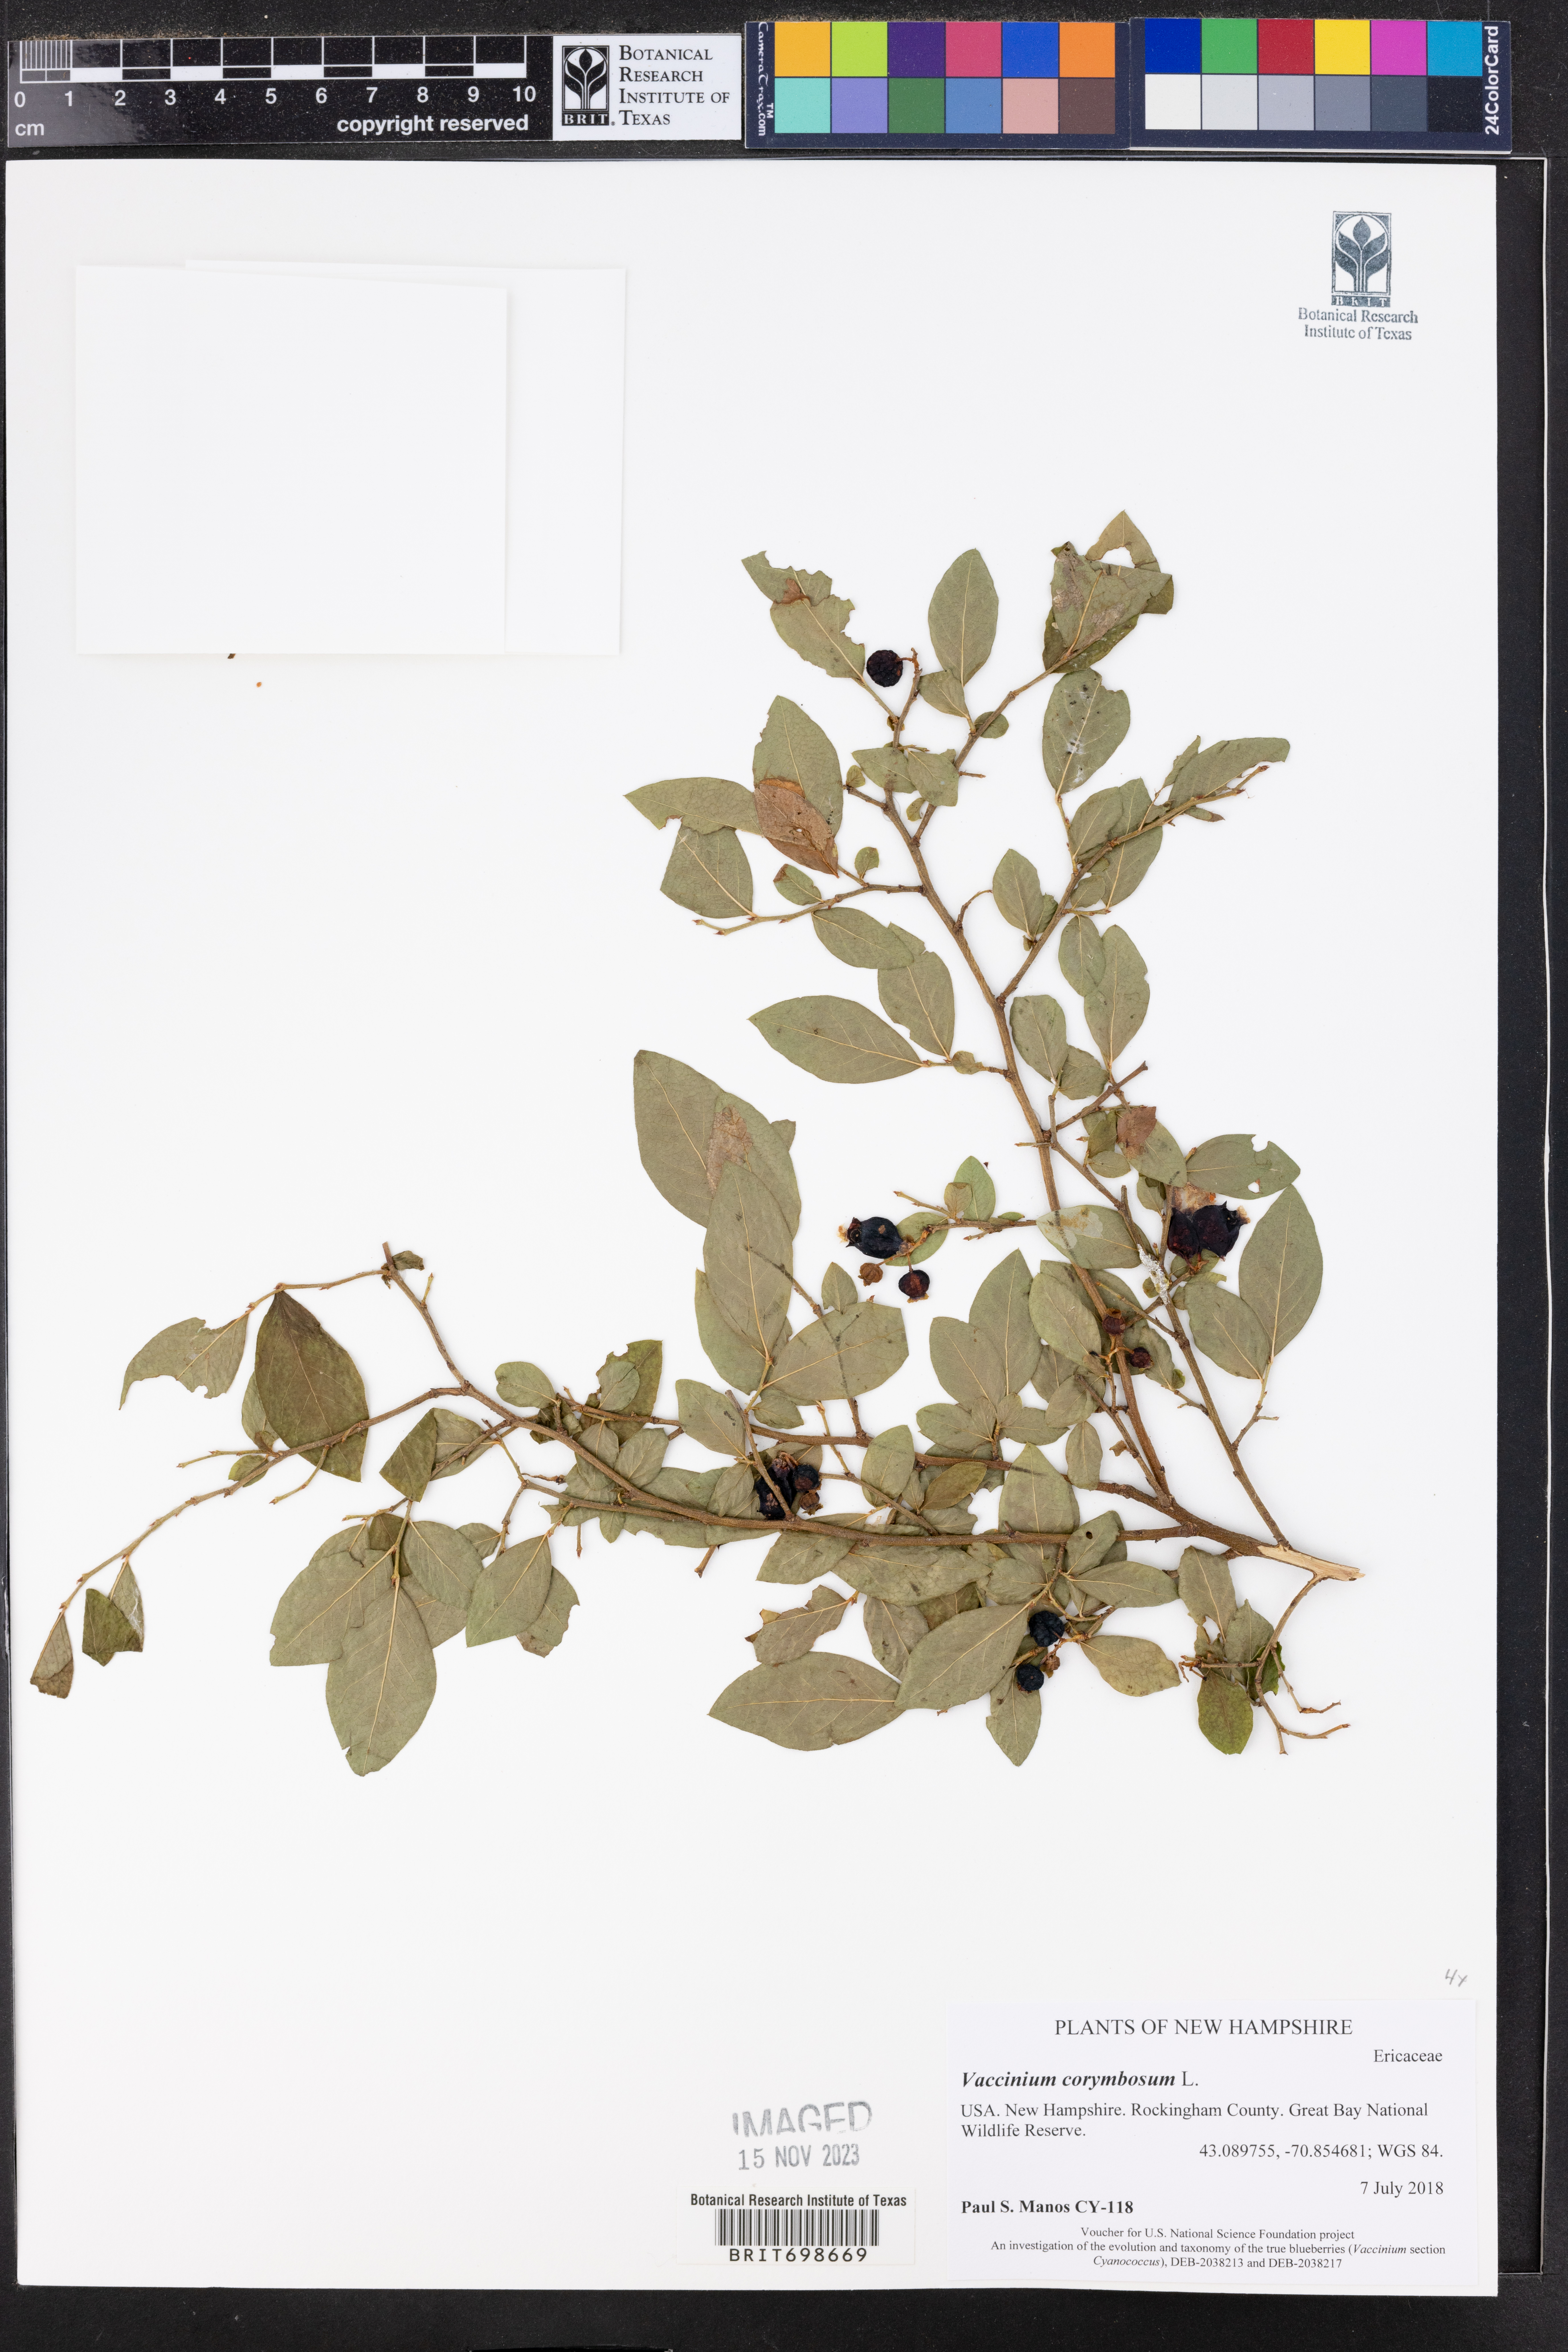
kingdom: Plantae
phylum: Tracheophyta
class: Magnoliopsida
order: Ericales
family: Ericaceae
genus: Vaccinium
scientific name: Vaccinium corymbosum
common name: Blueberry
